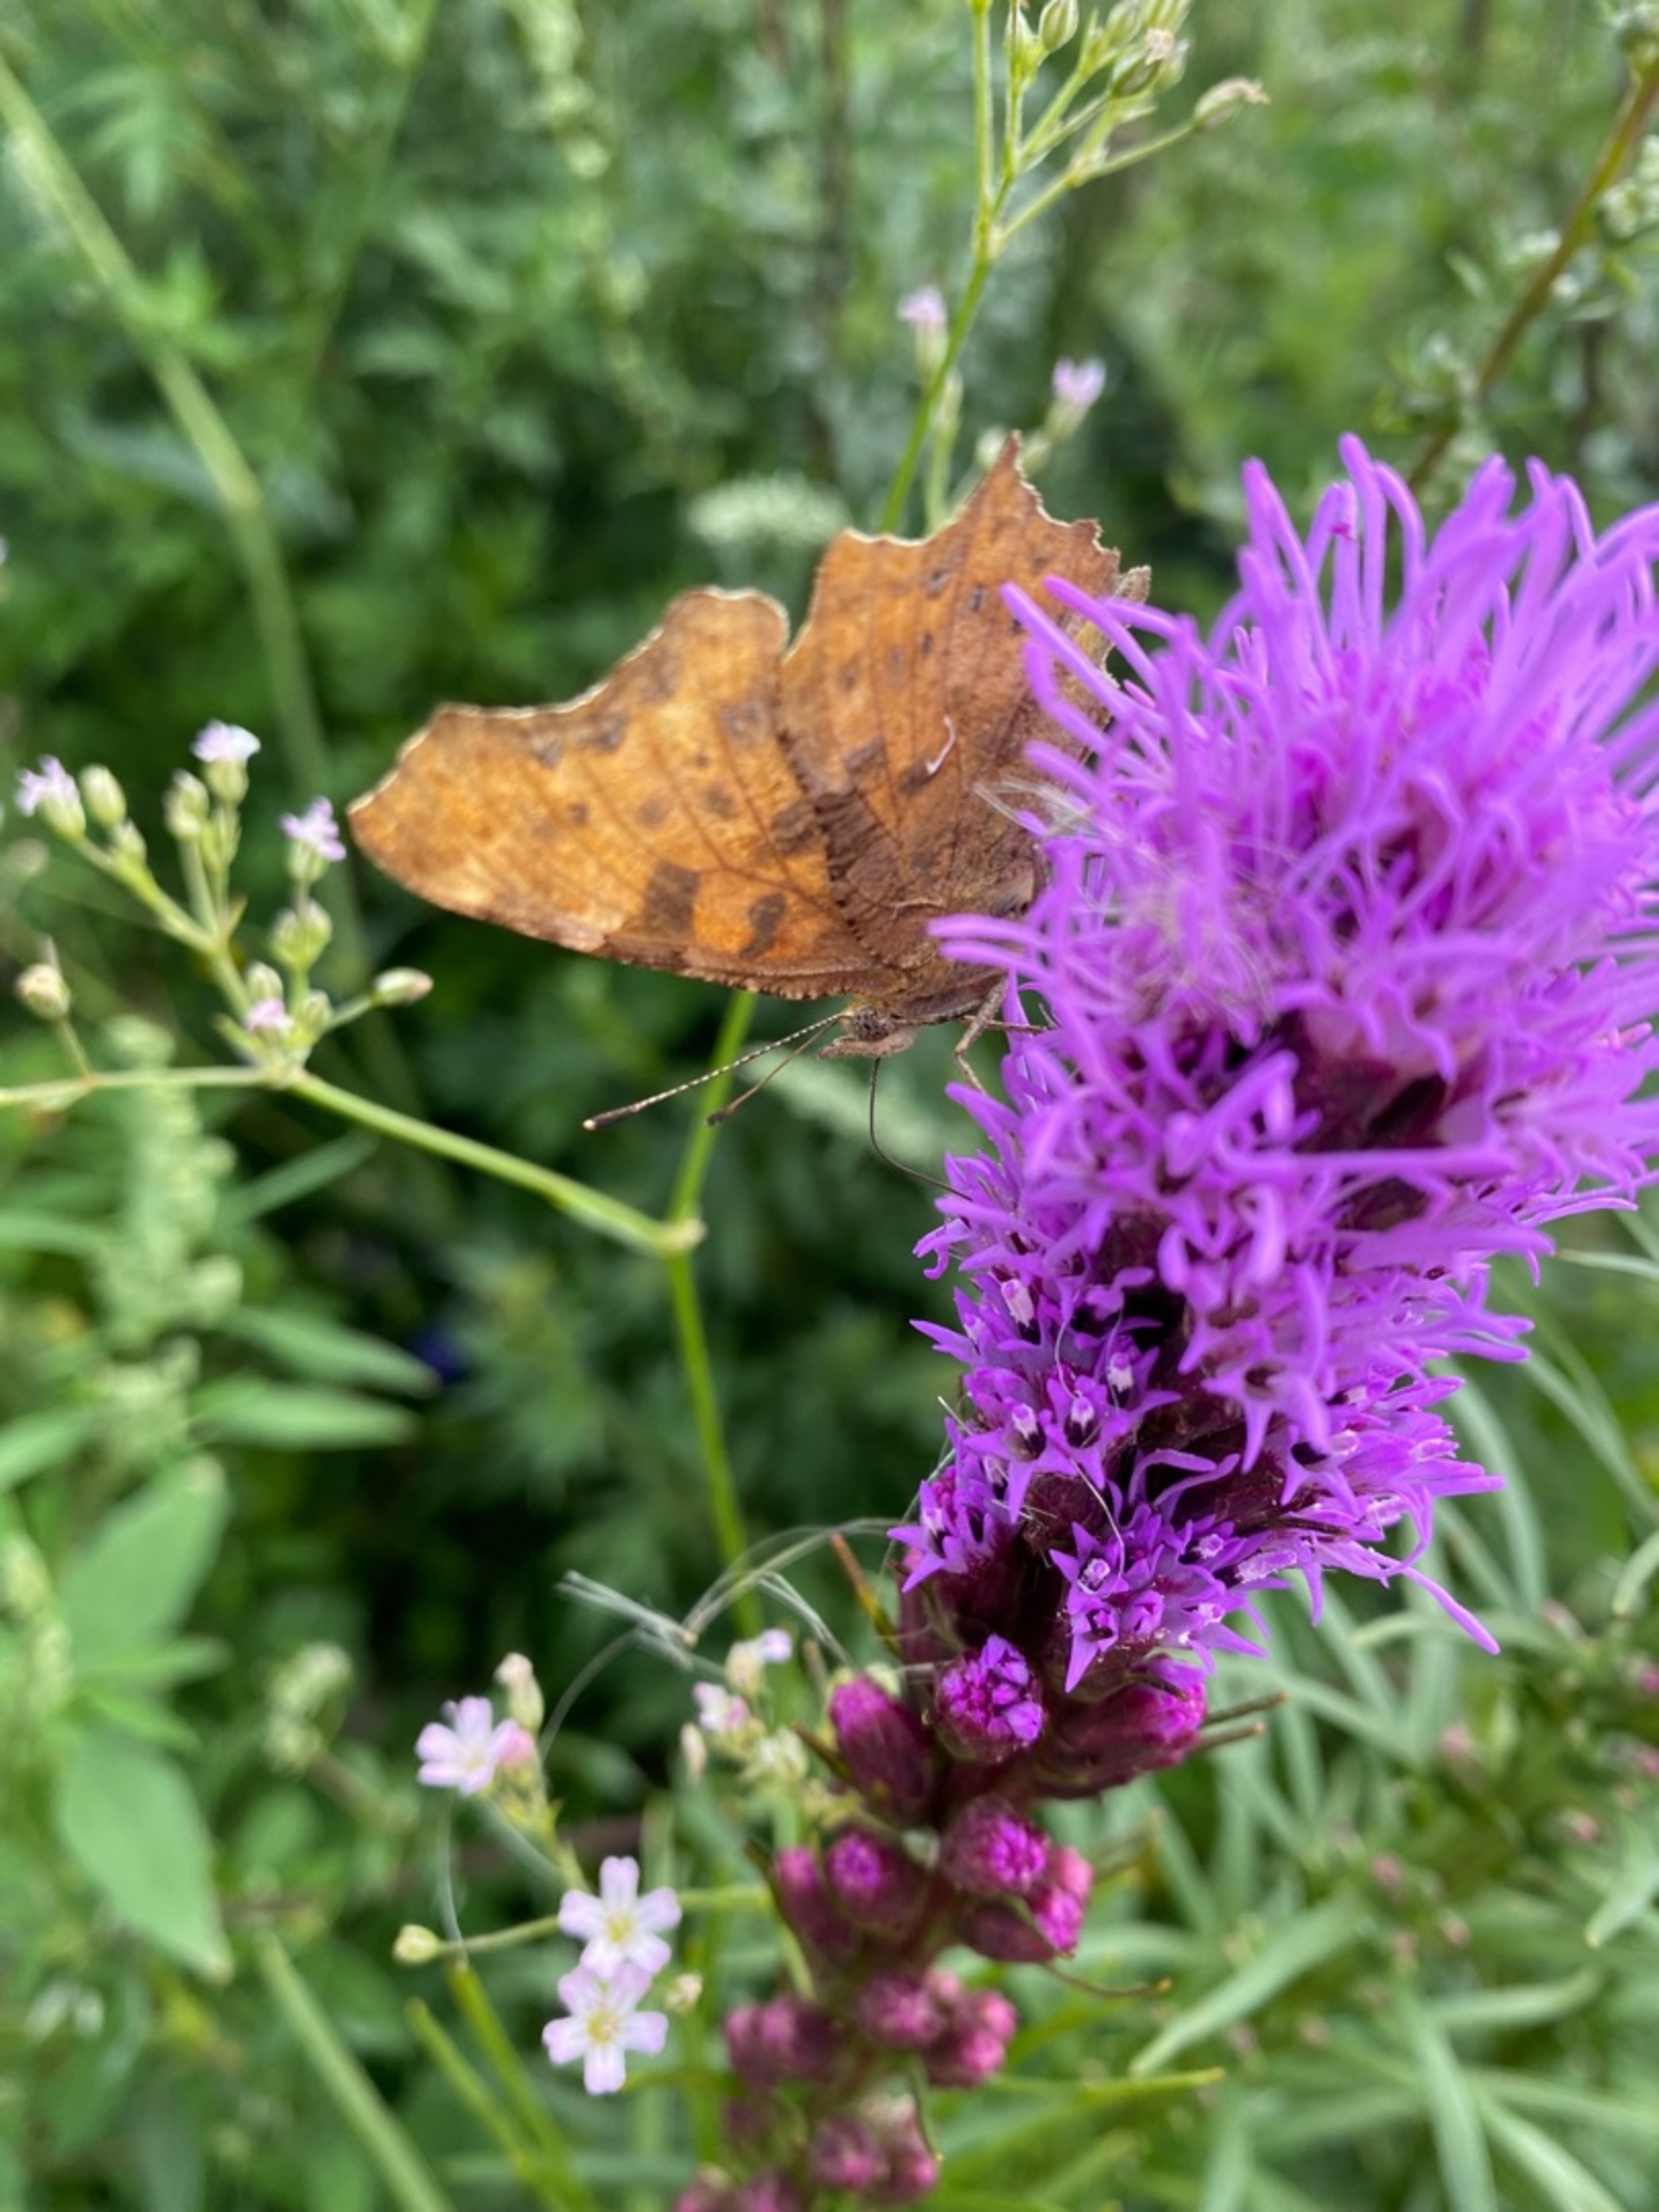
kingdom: Animalia
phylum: Arthropoda
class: Insecta
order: Lepidoptera
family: Nymphalidae
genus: Polygonia
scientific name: Polygonia c-album
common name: Det hvide C
